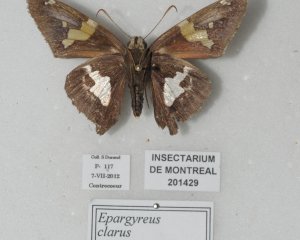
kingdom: Animalia
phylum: Arthropoda
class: Insecta
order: Lepidoptera
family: Hesperiidae
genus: Epargyreus
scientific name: Epargyreus clarus
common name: Silver-spotted Skipper
